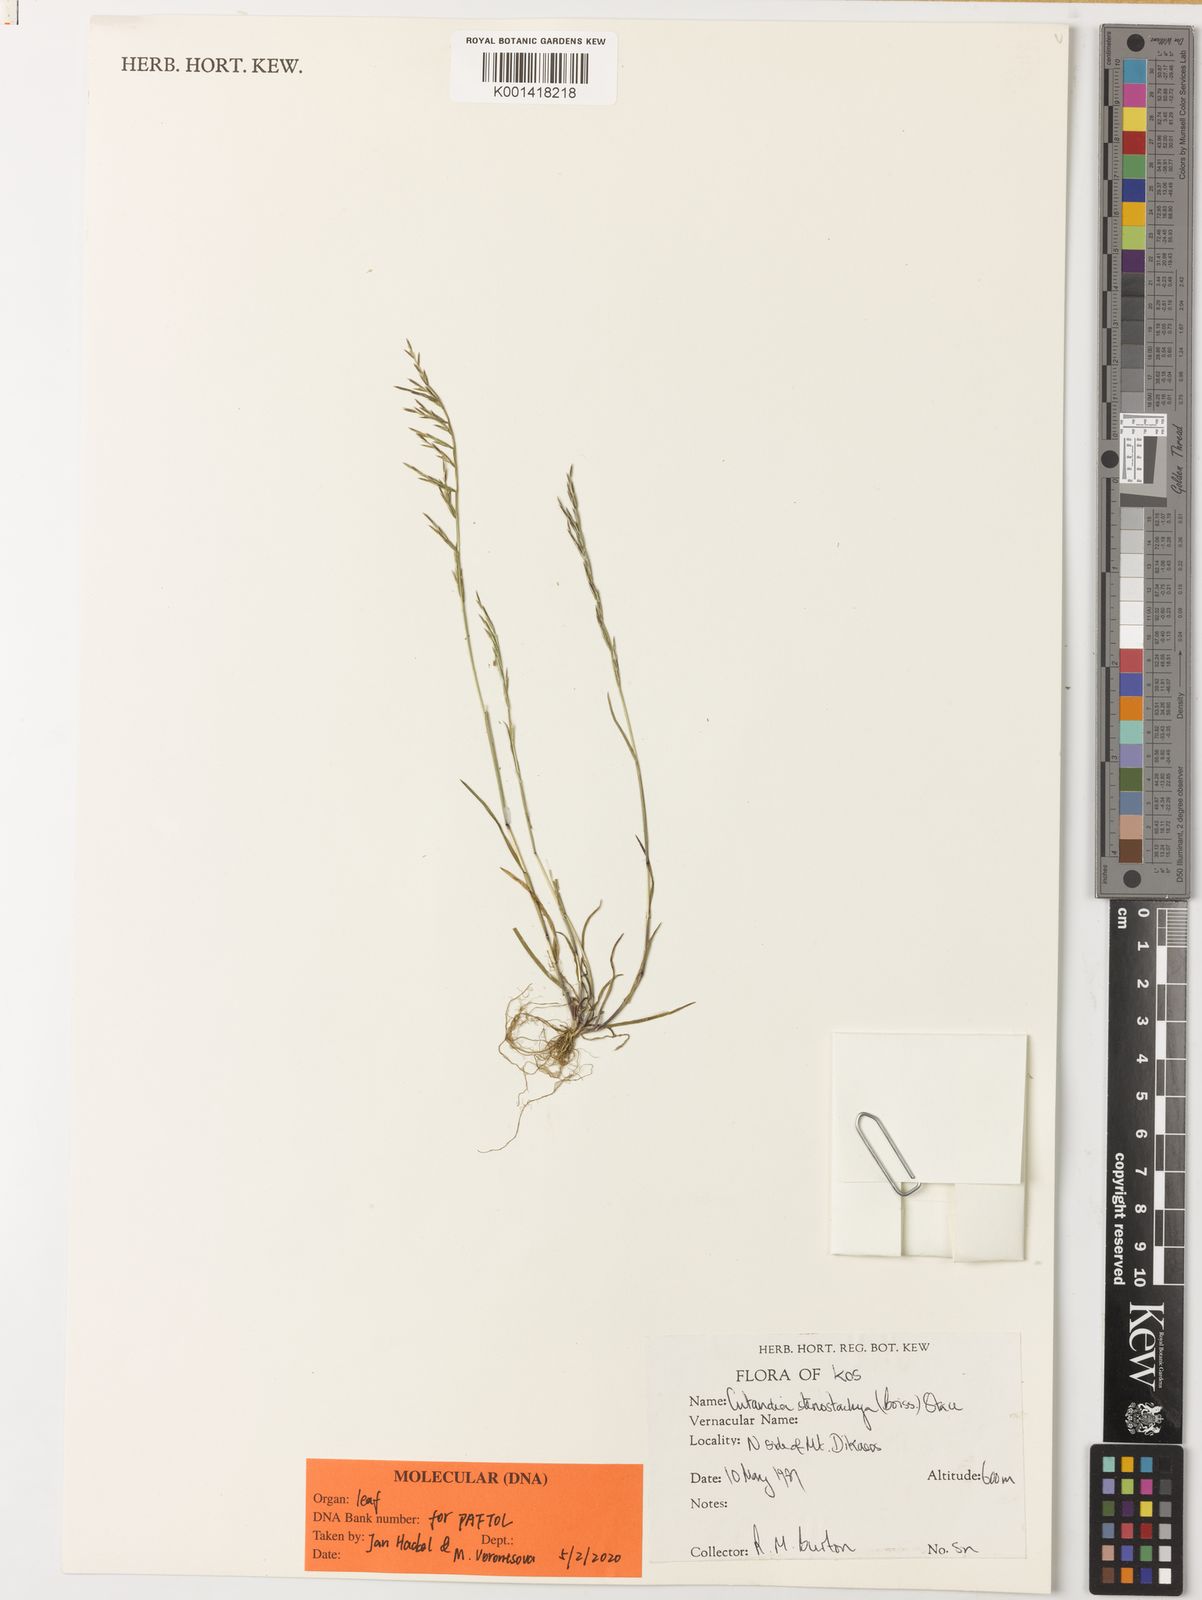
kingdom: Plantae
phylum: Tracheophyta
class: Liliopsida
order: Poales
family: Poaceae
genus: Cutandia
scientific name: Cutandia stenostachya
